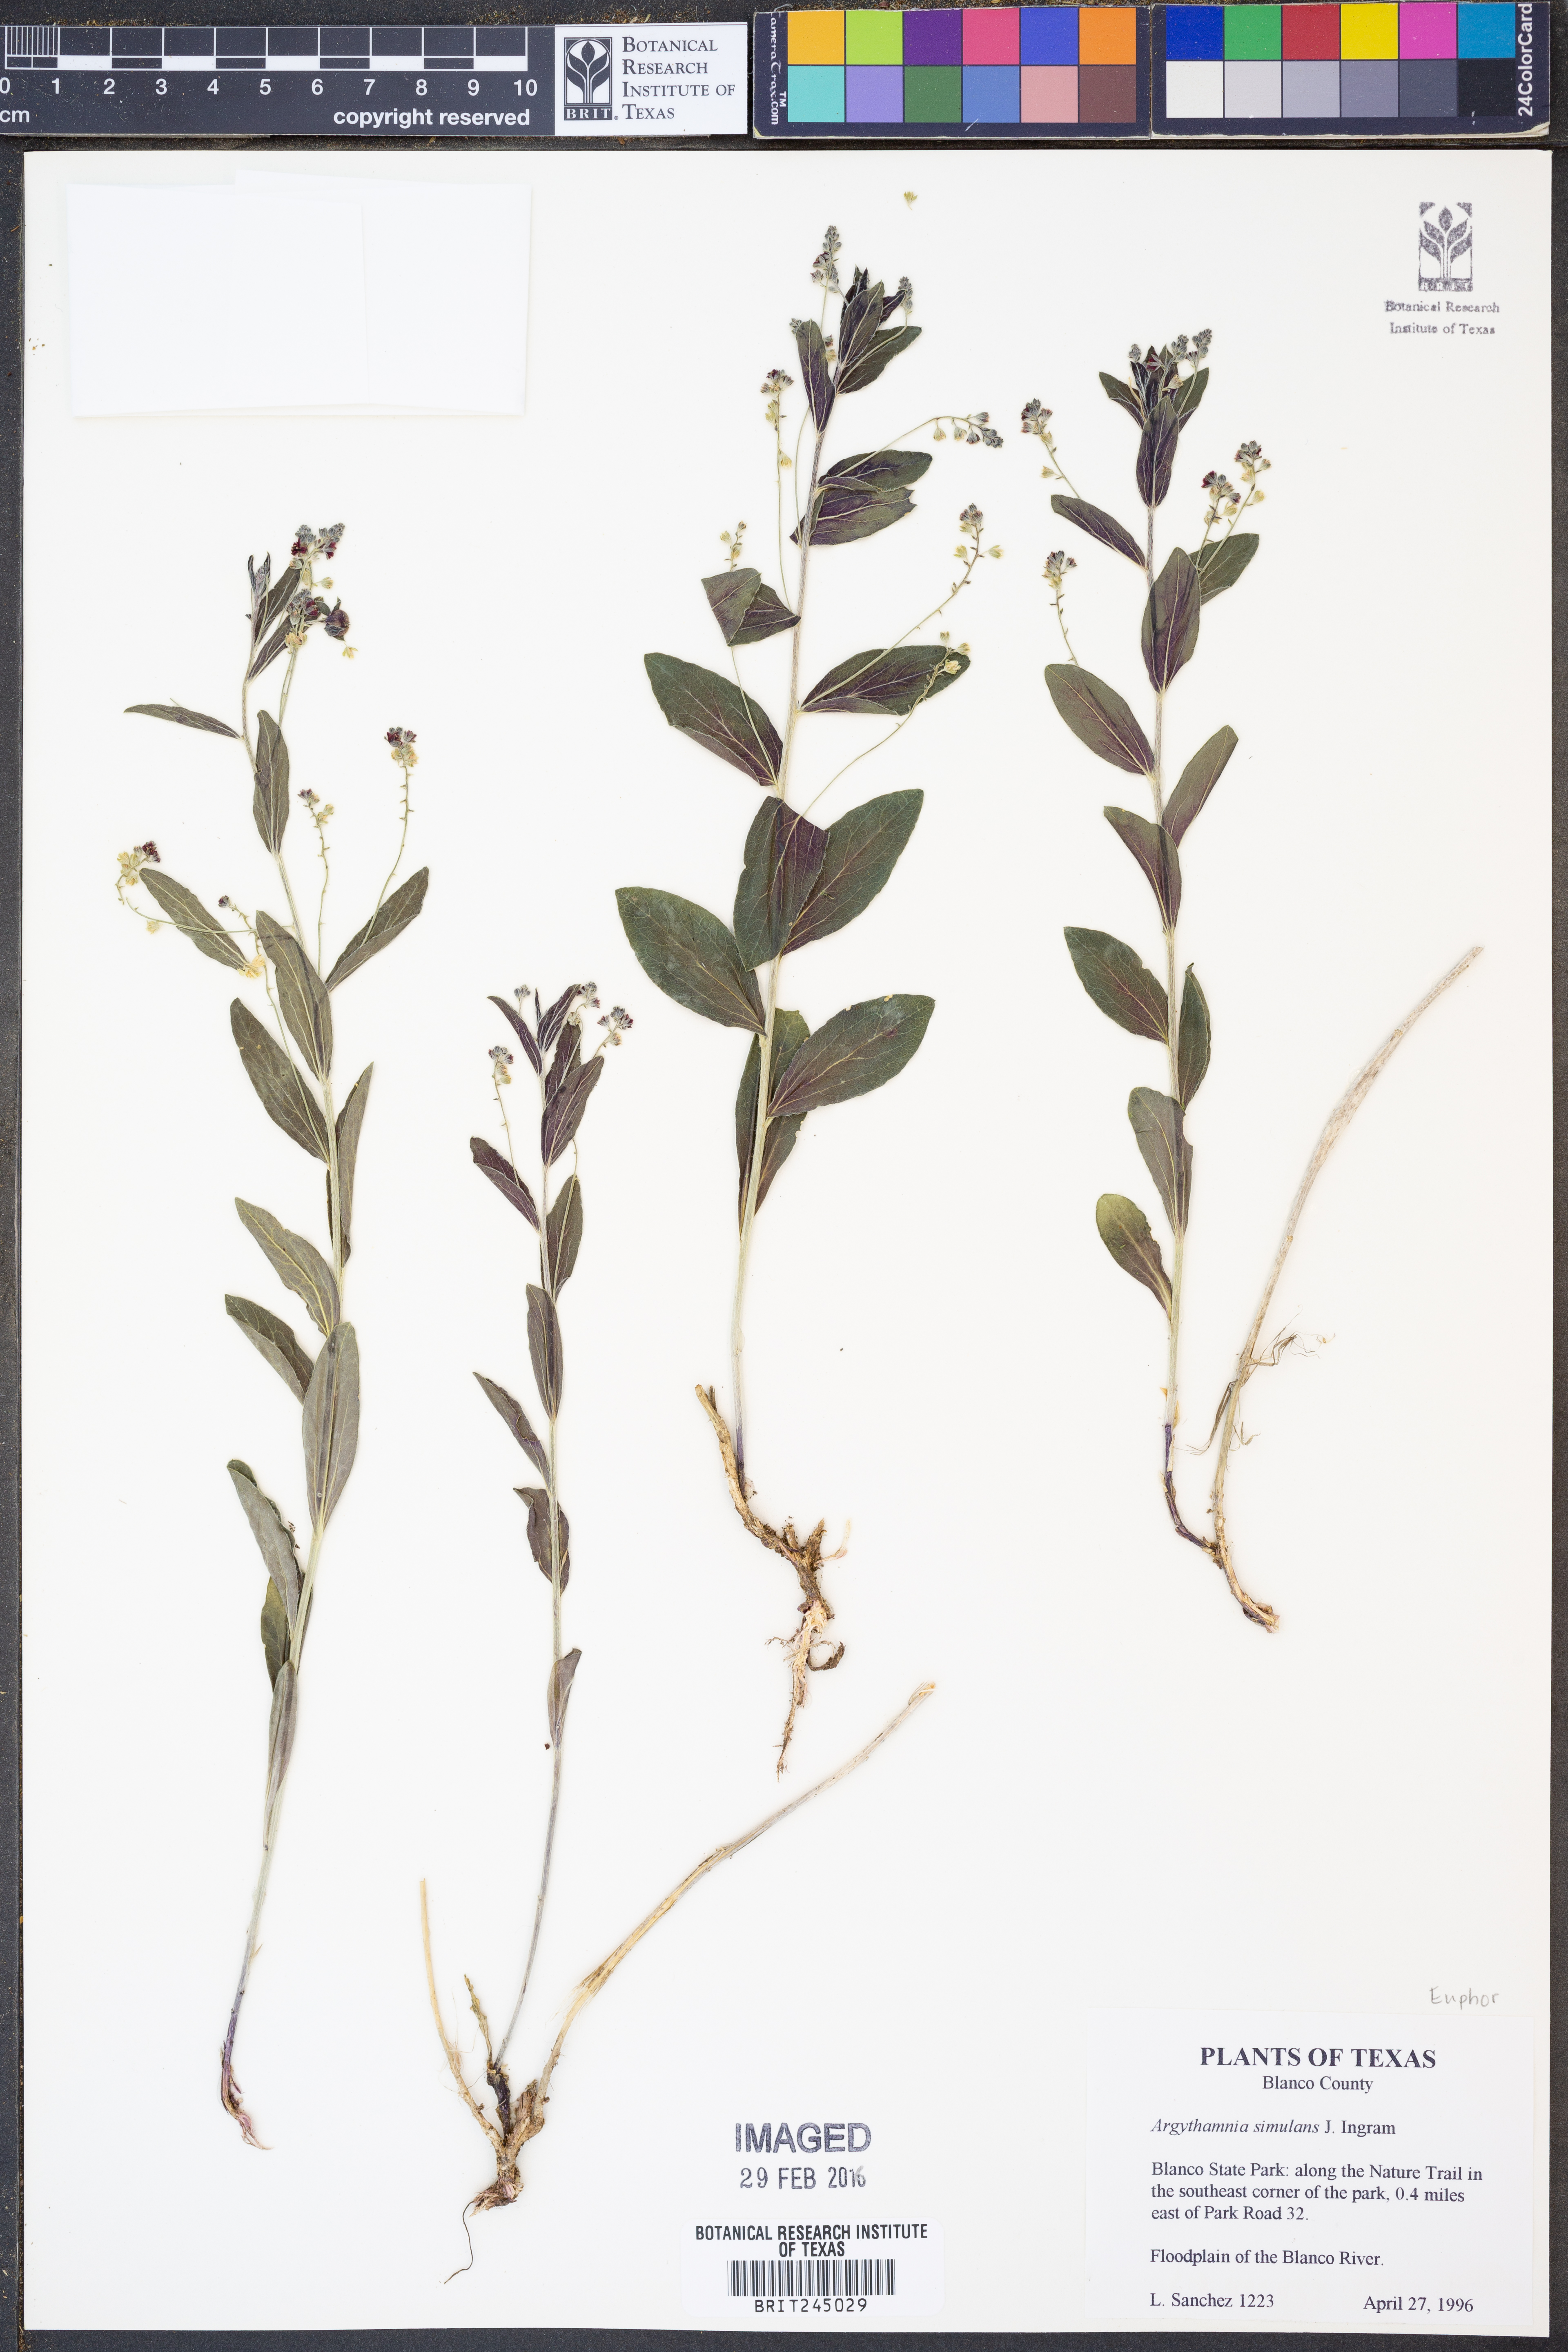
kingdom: Plantae
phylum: Tracheophyta
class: Magnoliopsida
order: Malpighiales
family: Euphorbiaceae
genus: Ditaxis
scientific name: Ditaxis simulans
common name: Plateau silverbush
